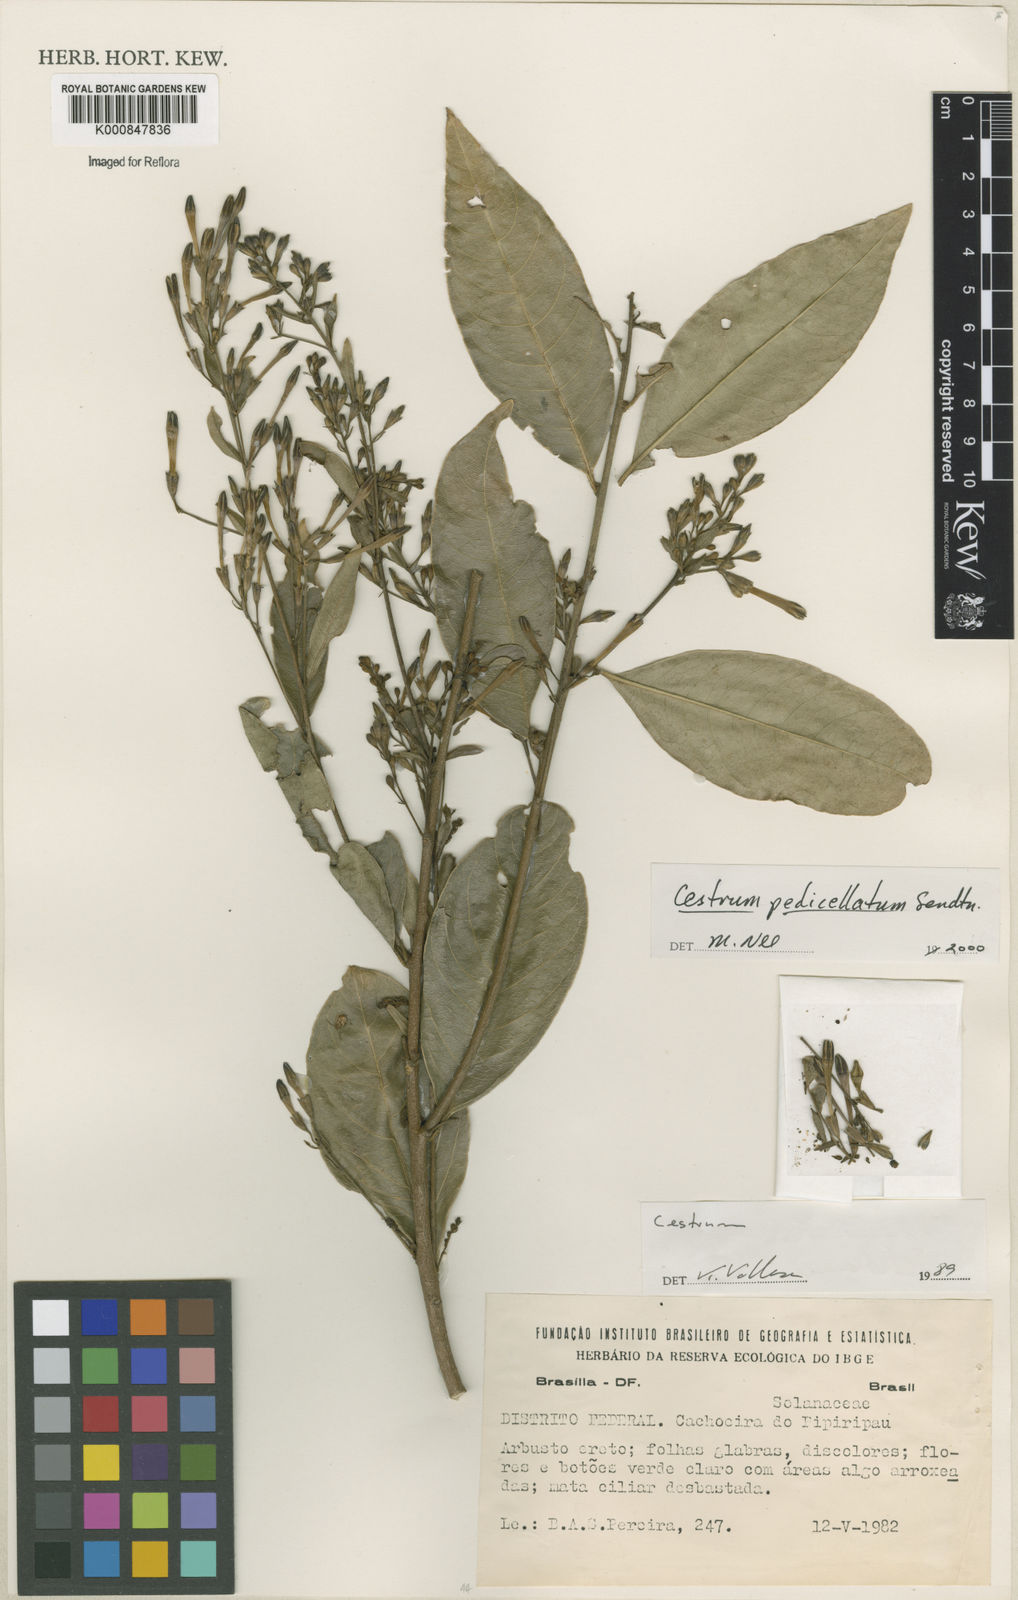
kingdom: Plantae
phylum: Tracheophyta
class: Magnoliopsida
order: Solanales
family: Solanaceae
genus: Cestrum
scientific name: Cestrum pedicellatum
